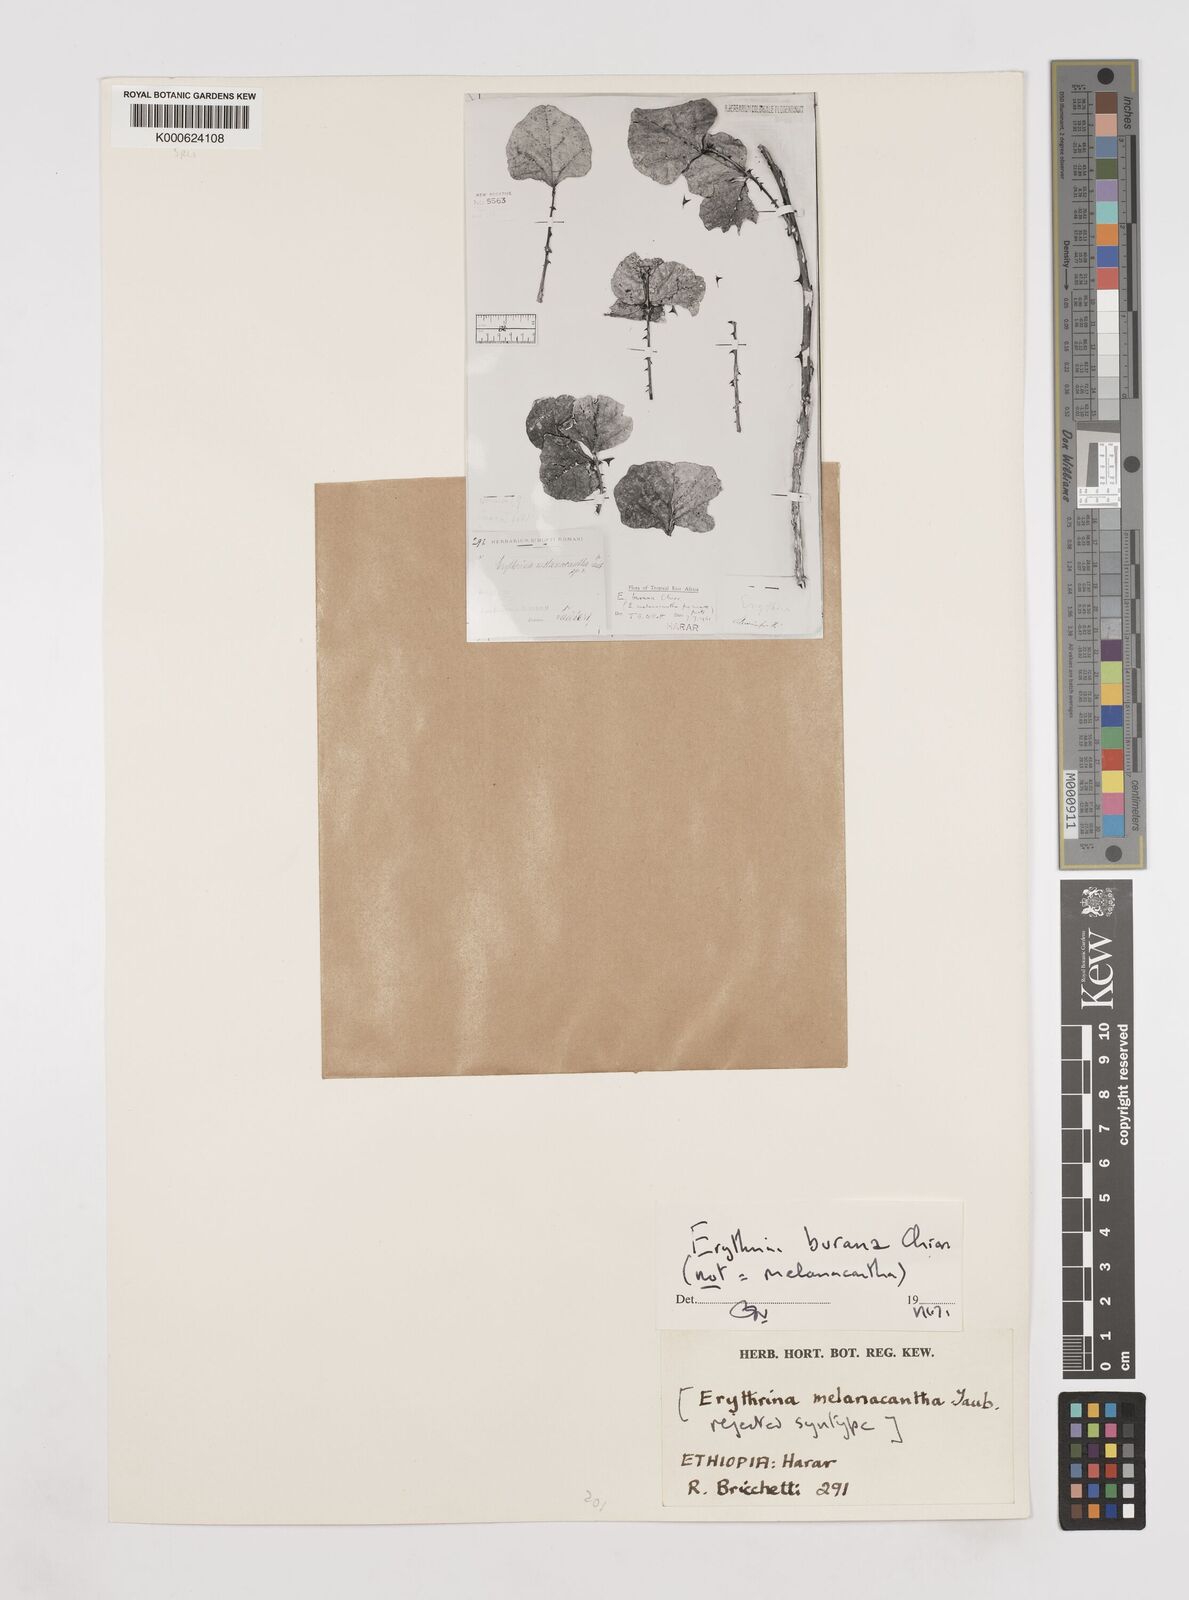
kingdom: Plantae
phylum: Tracheophyta
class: Magnoliopsida
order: Fabales
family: Fabaceae
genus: Erythrina
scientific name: Erythrina burana
